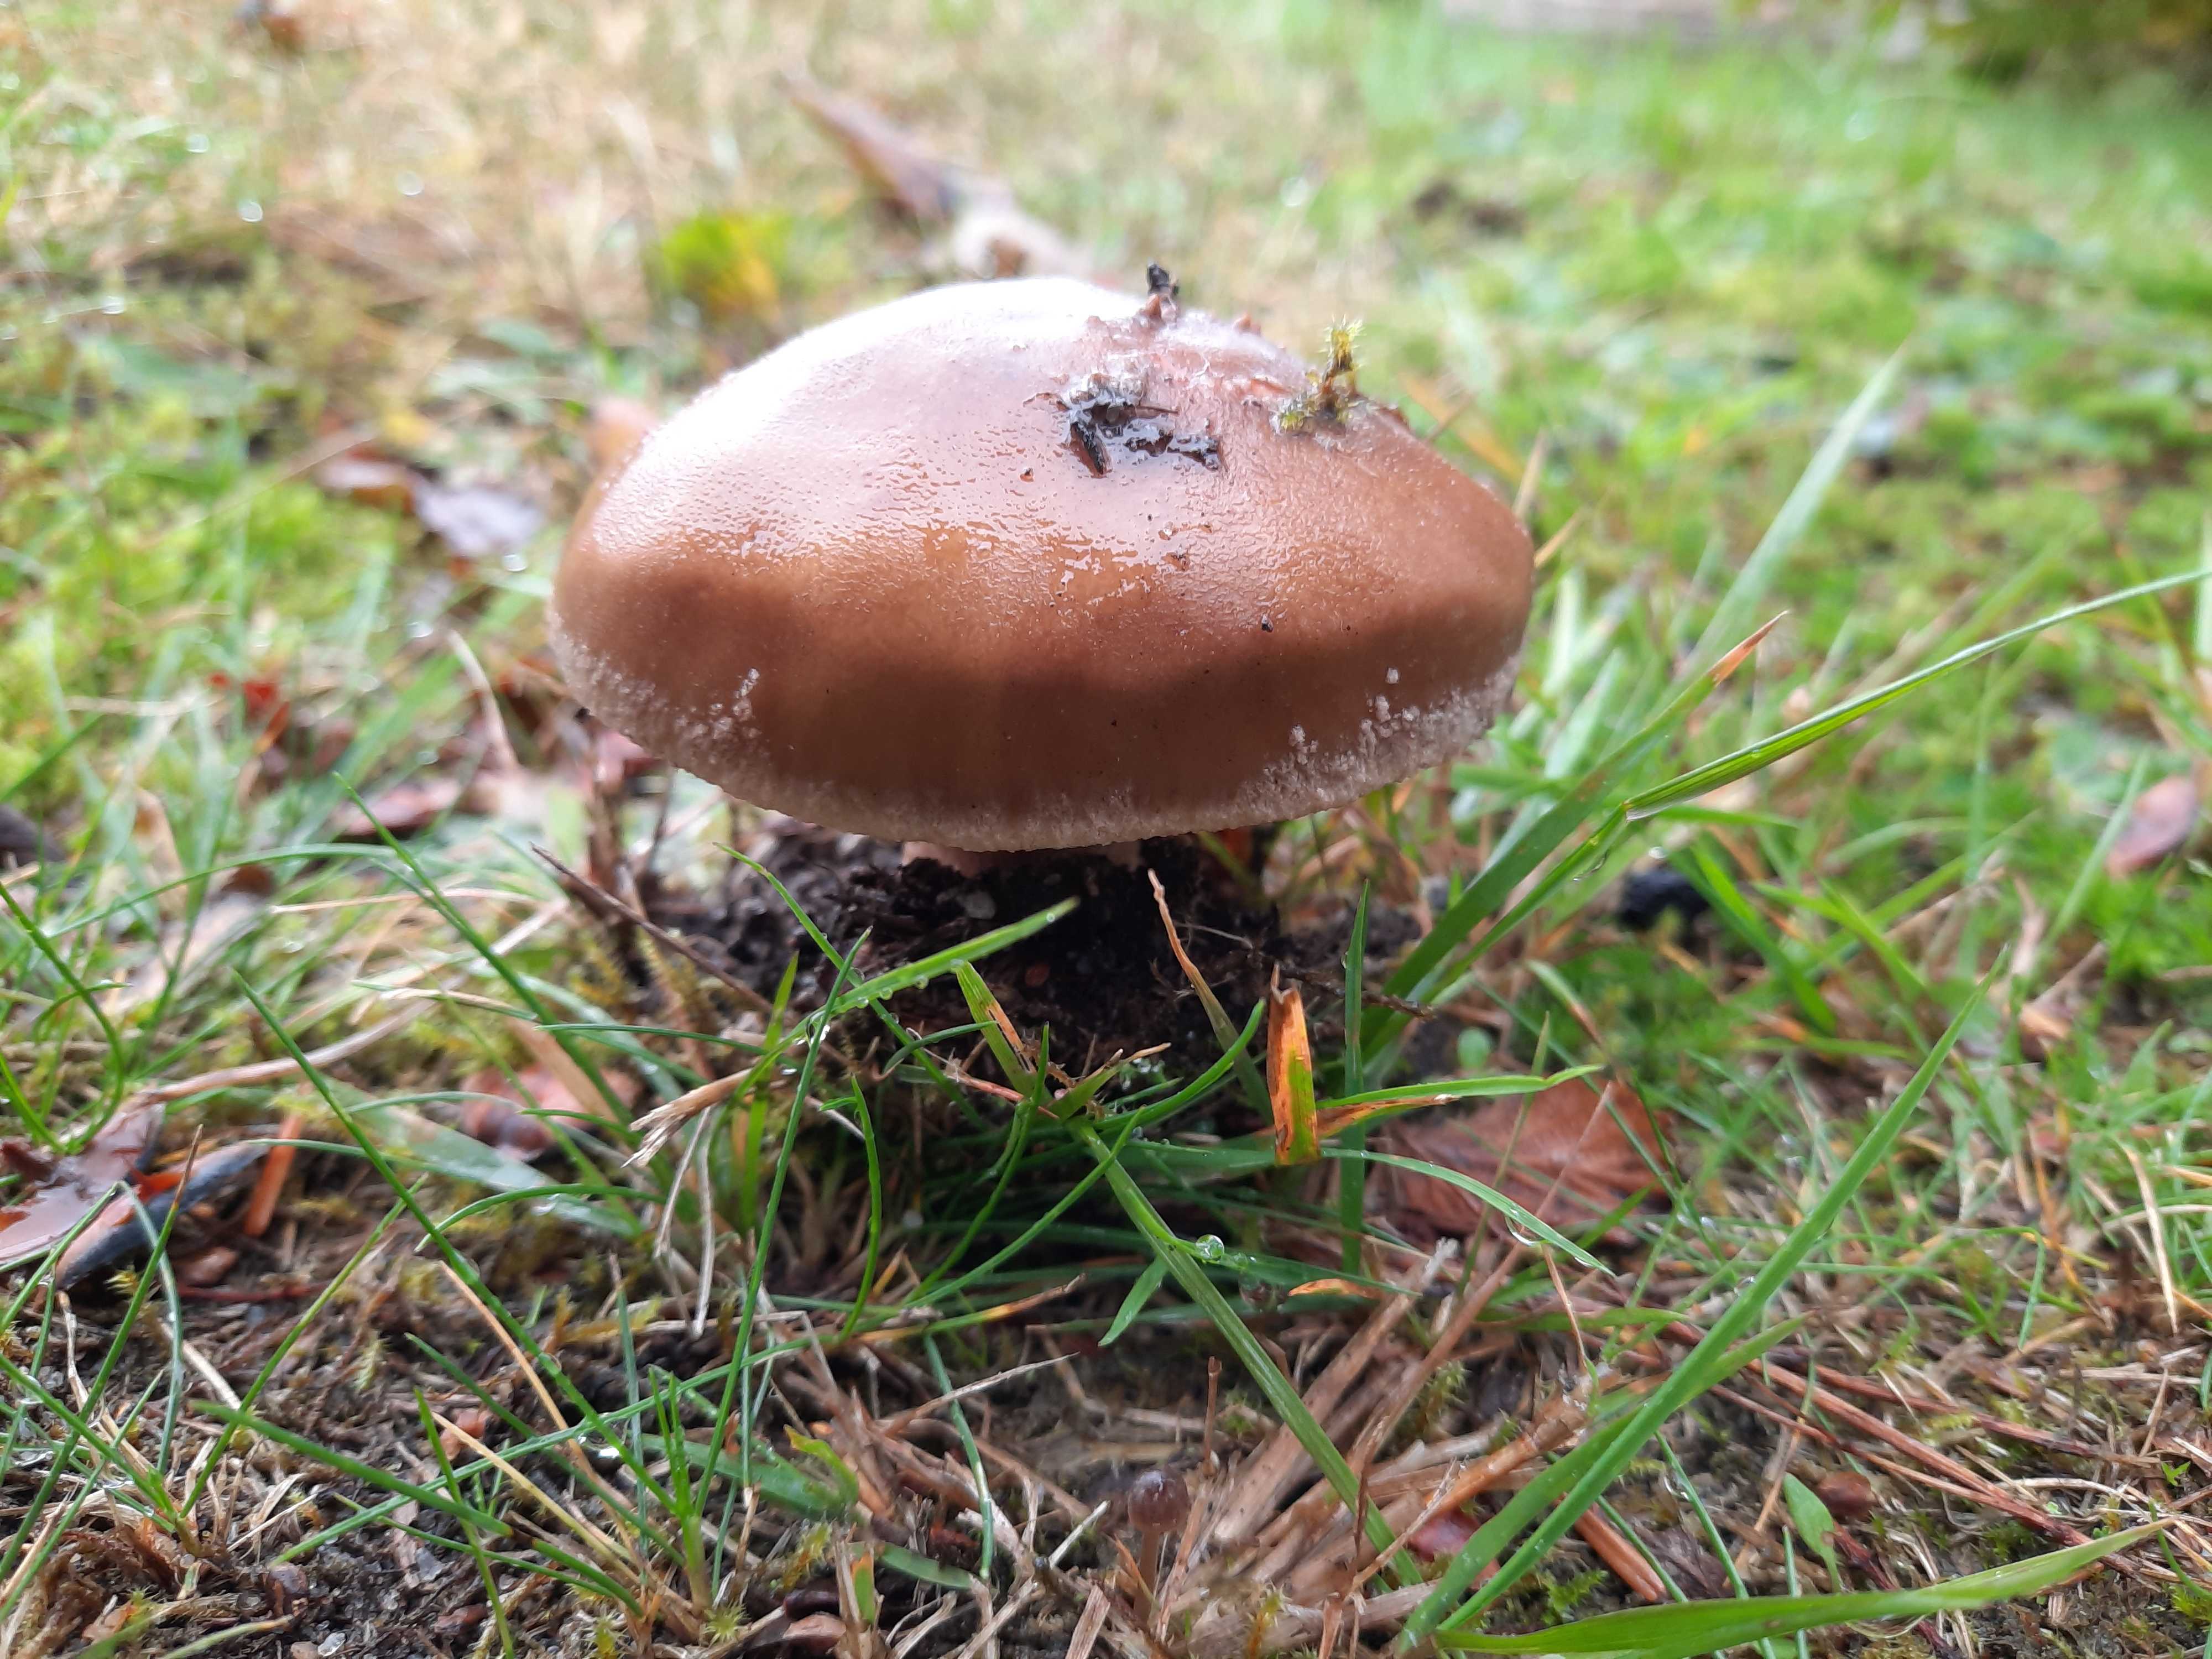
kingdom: Fungi
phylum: Basidiomycota
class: Agaricomycetes
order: Agaricales
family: Amanitaceae
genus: Amanita
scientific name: Amanita rubescens
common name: rødmende fluesvamp
